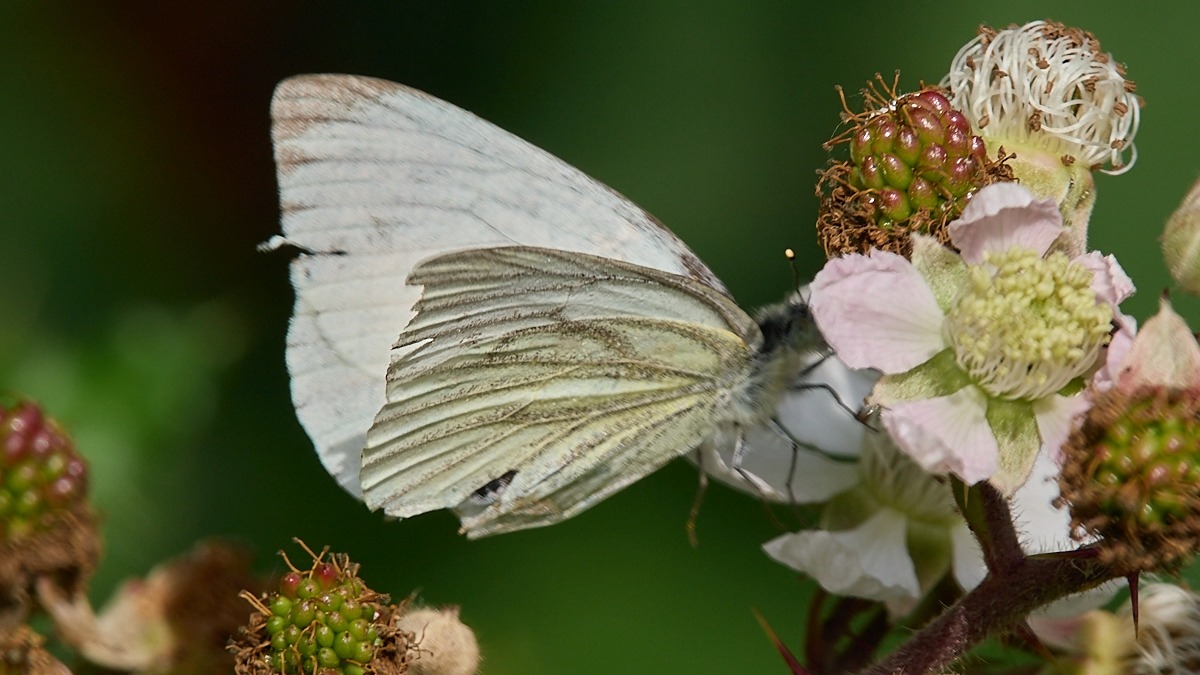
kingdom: Animalia
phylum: Arthropoda
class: Insecta
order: Lepidoptera
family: Pieridae
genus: Pieris
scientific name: Pieris napi
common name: Grønåret kålsommerfugl
